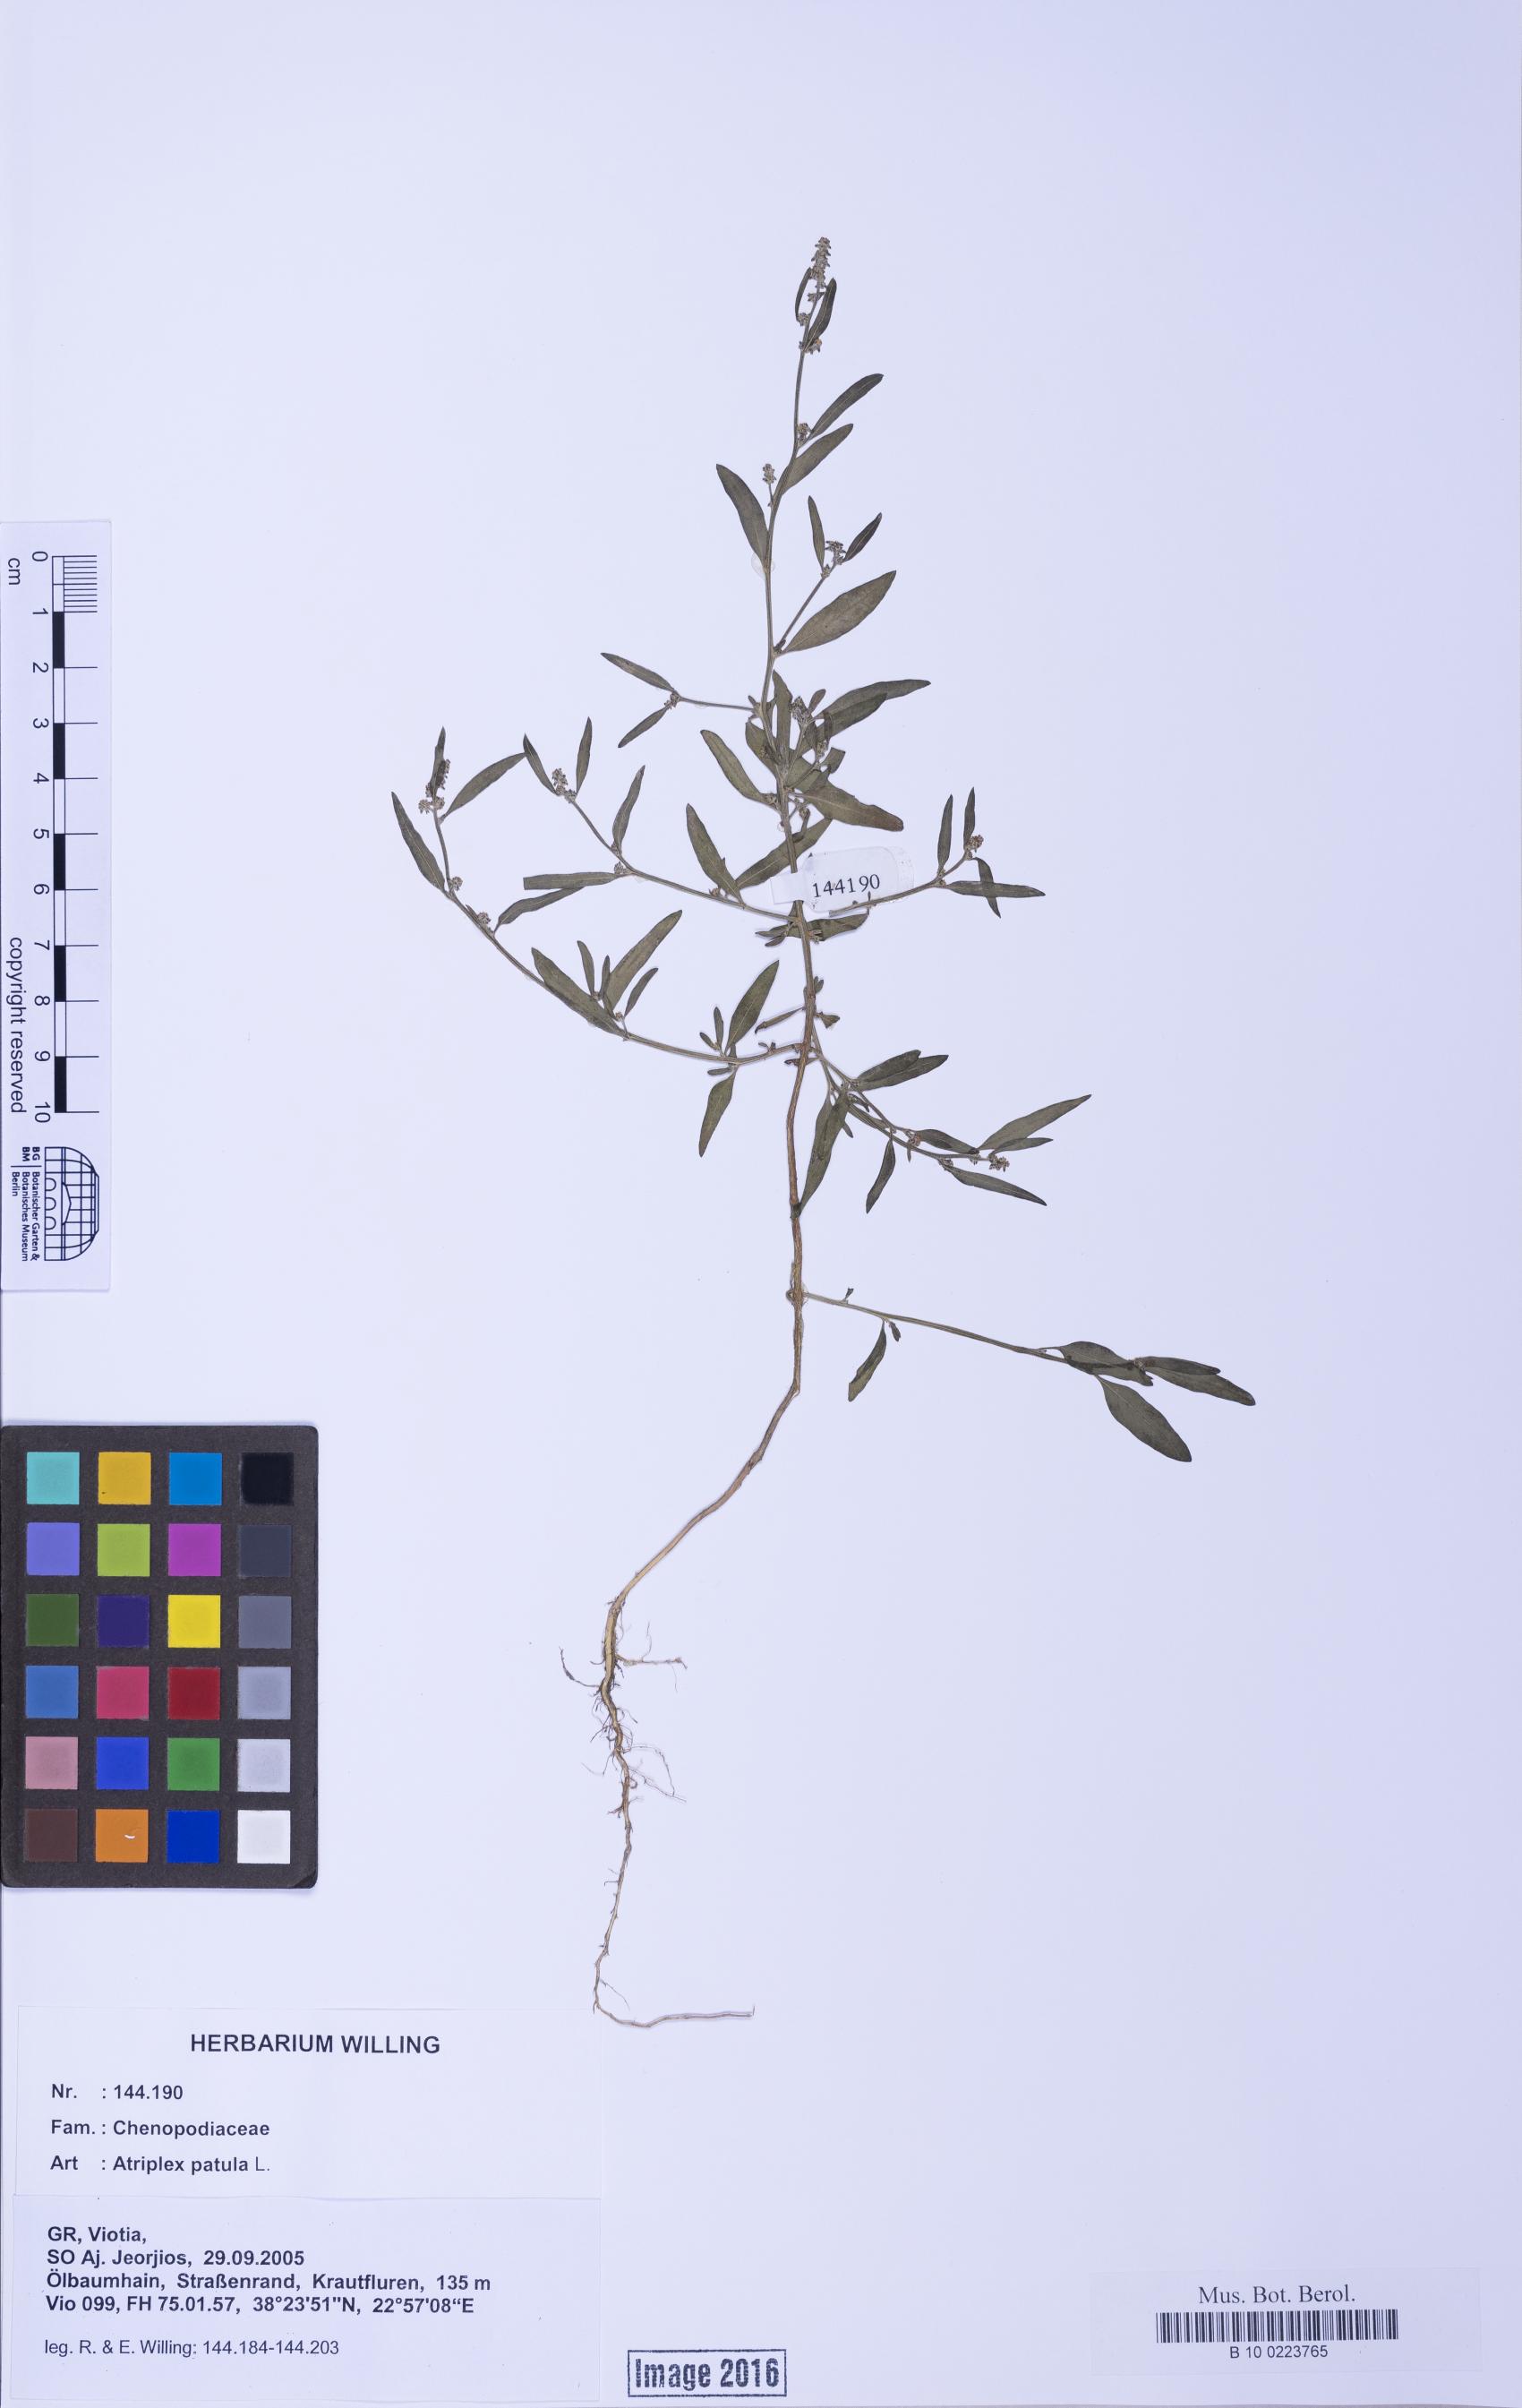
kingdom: Plantae
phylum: Tracheophyta
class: Magnoliopsida
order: Caryophyllales
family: Amaranthaceae
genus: Atriplex
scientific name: Atriplex patula
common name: Common orache
